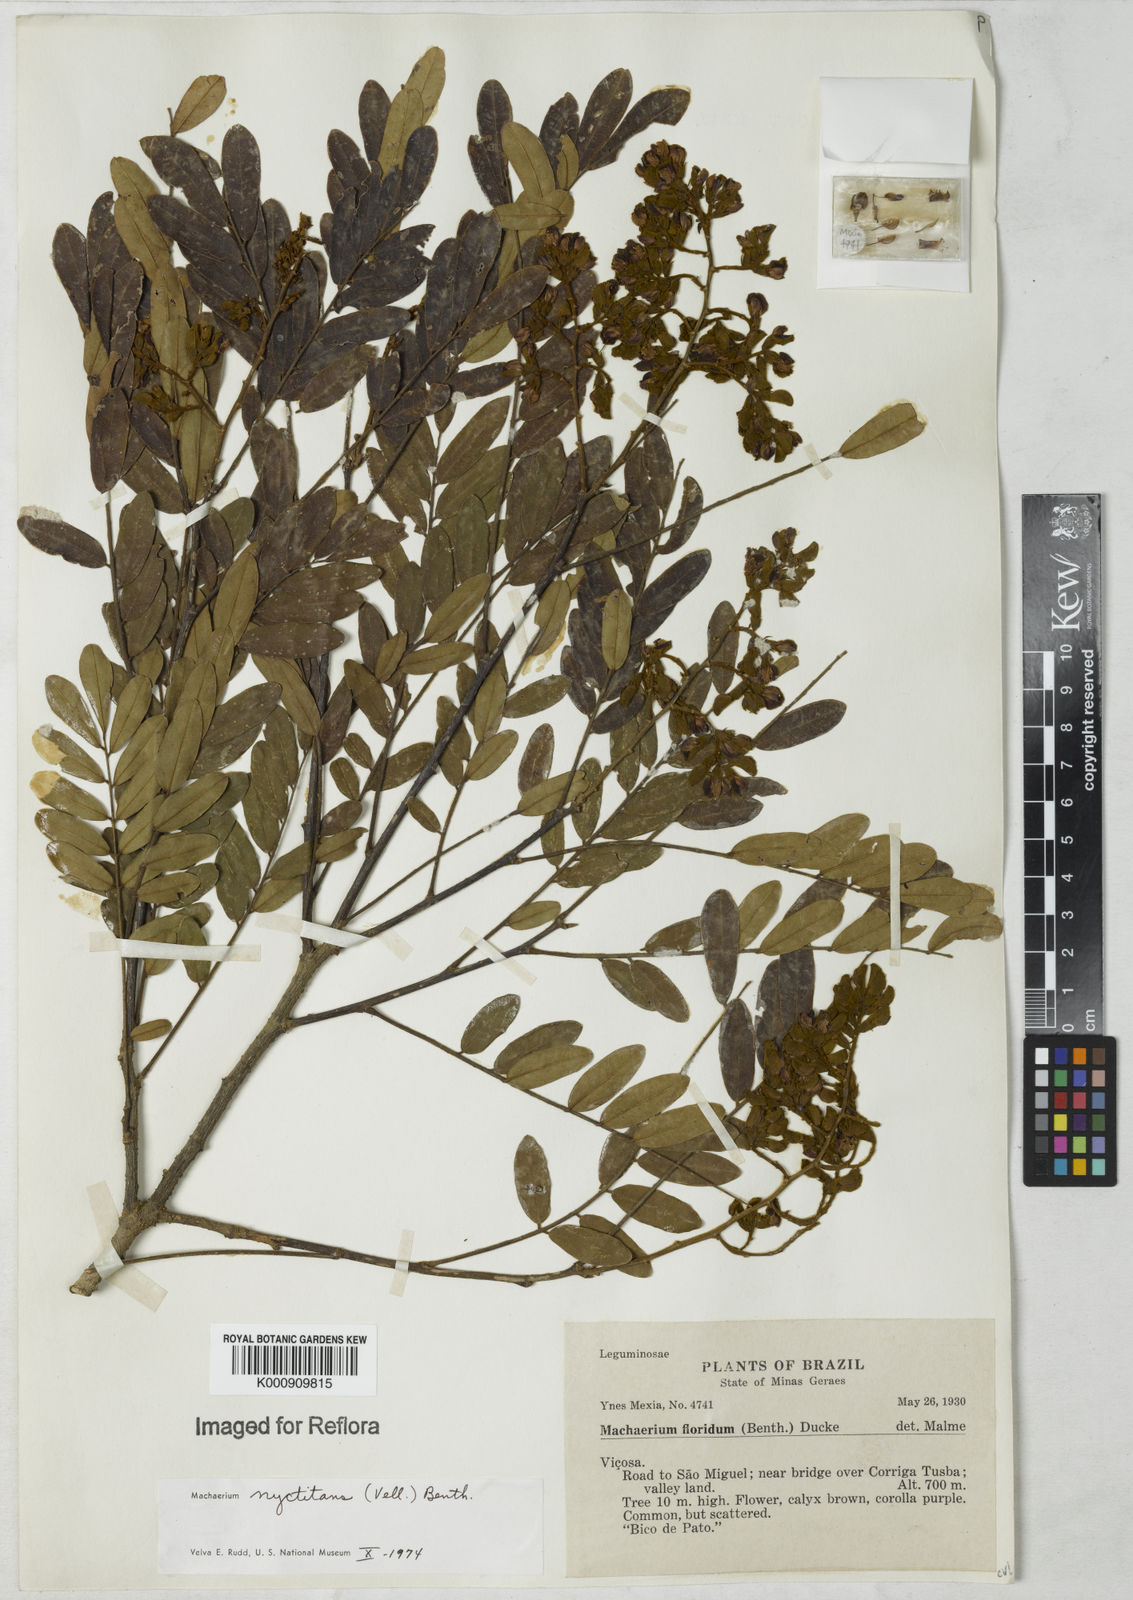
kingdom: Plantae
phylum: Tracheophyta
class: Magnoliopsida
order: Fabales
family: Fabaceae
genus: Machaerium
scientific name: Machaerium nyctitans
